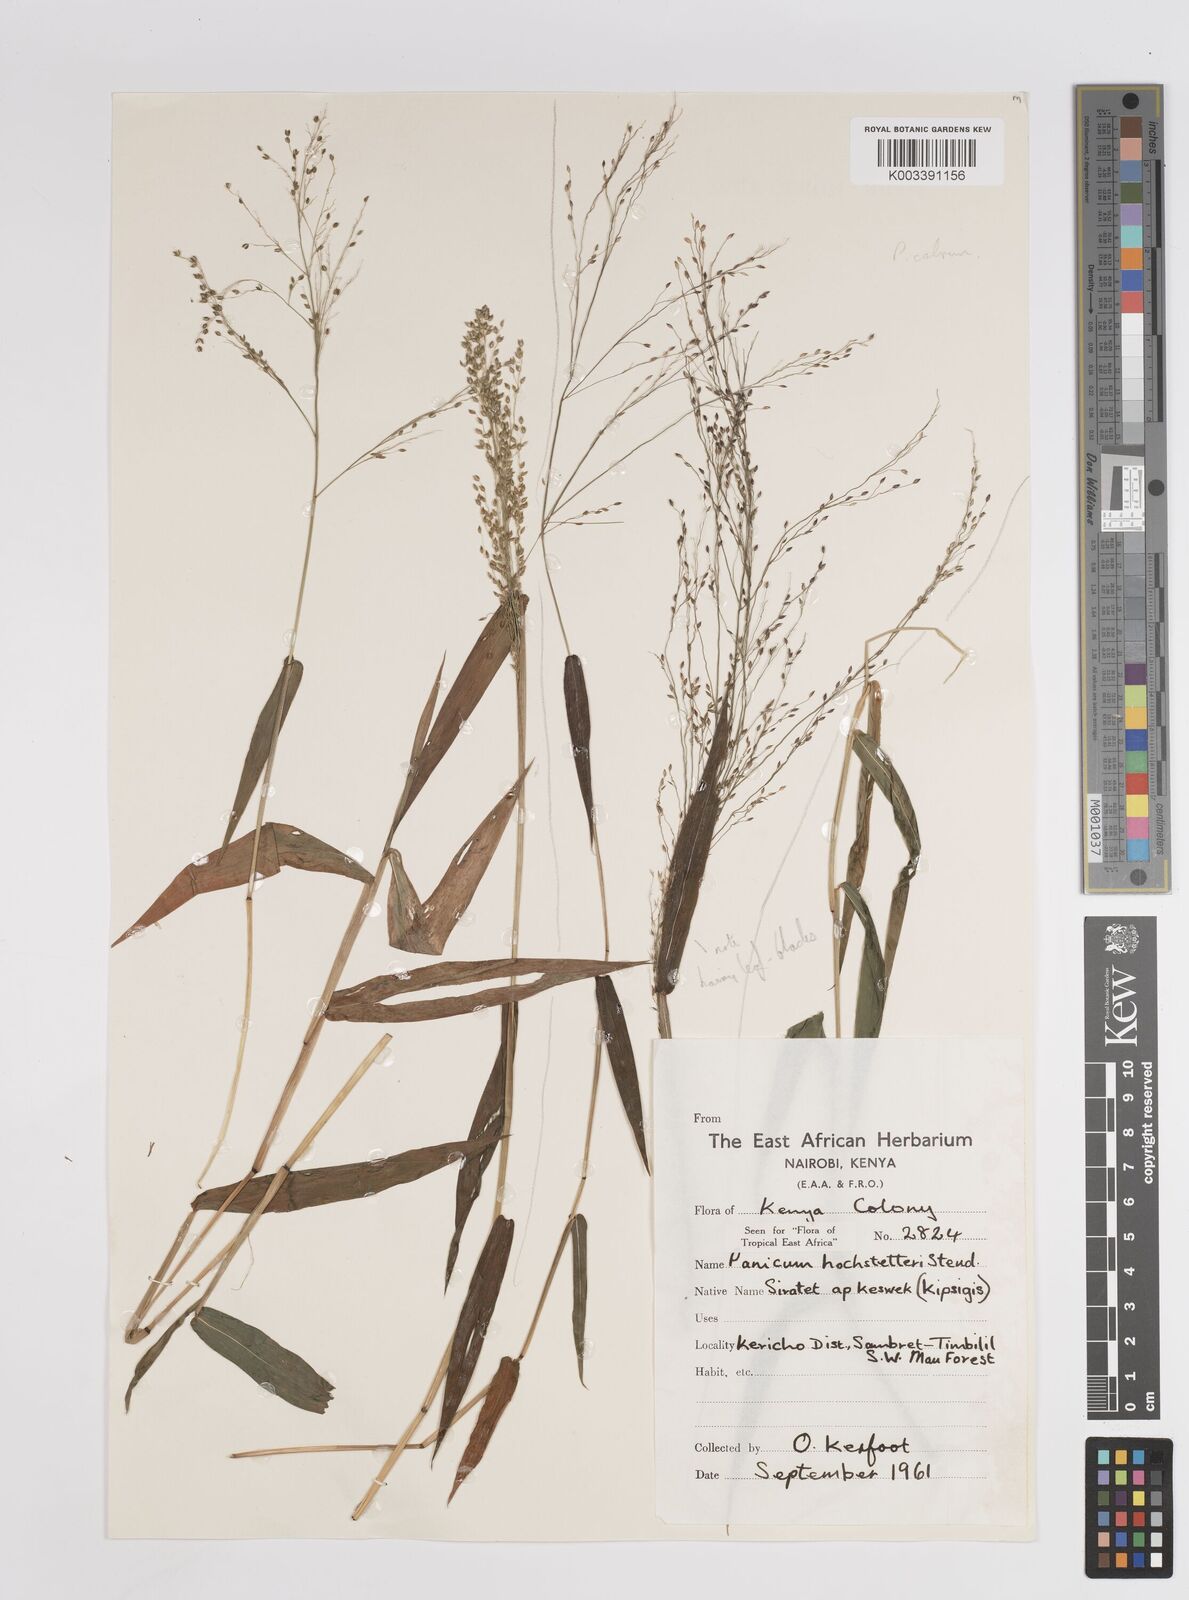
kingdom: Plantae
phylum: Tracheophyta
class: Liliopsida
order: Poales
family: Poaceae
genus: Panicum
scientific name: Panicum hochstetteri
